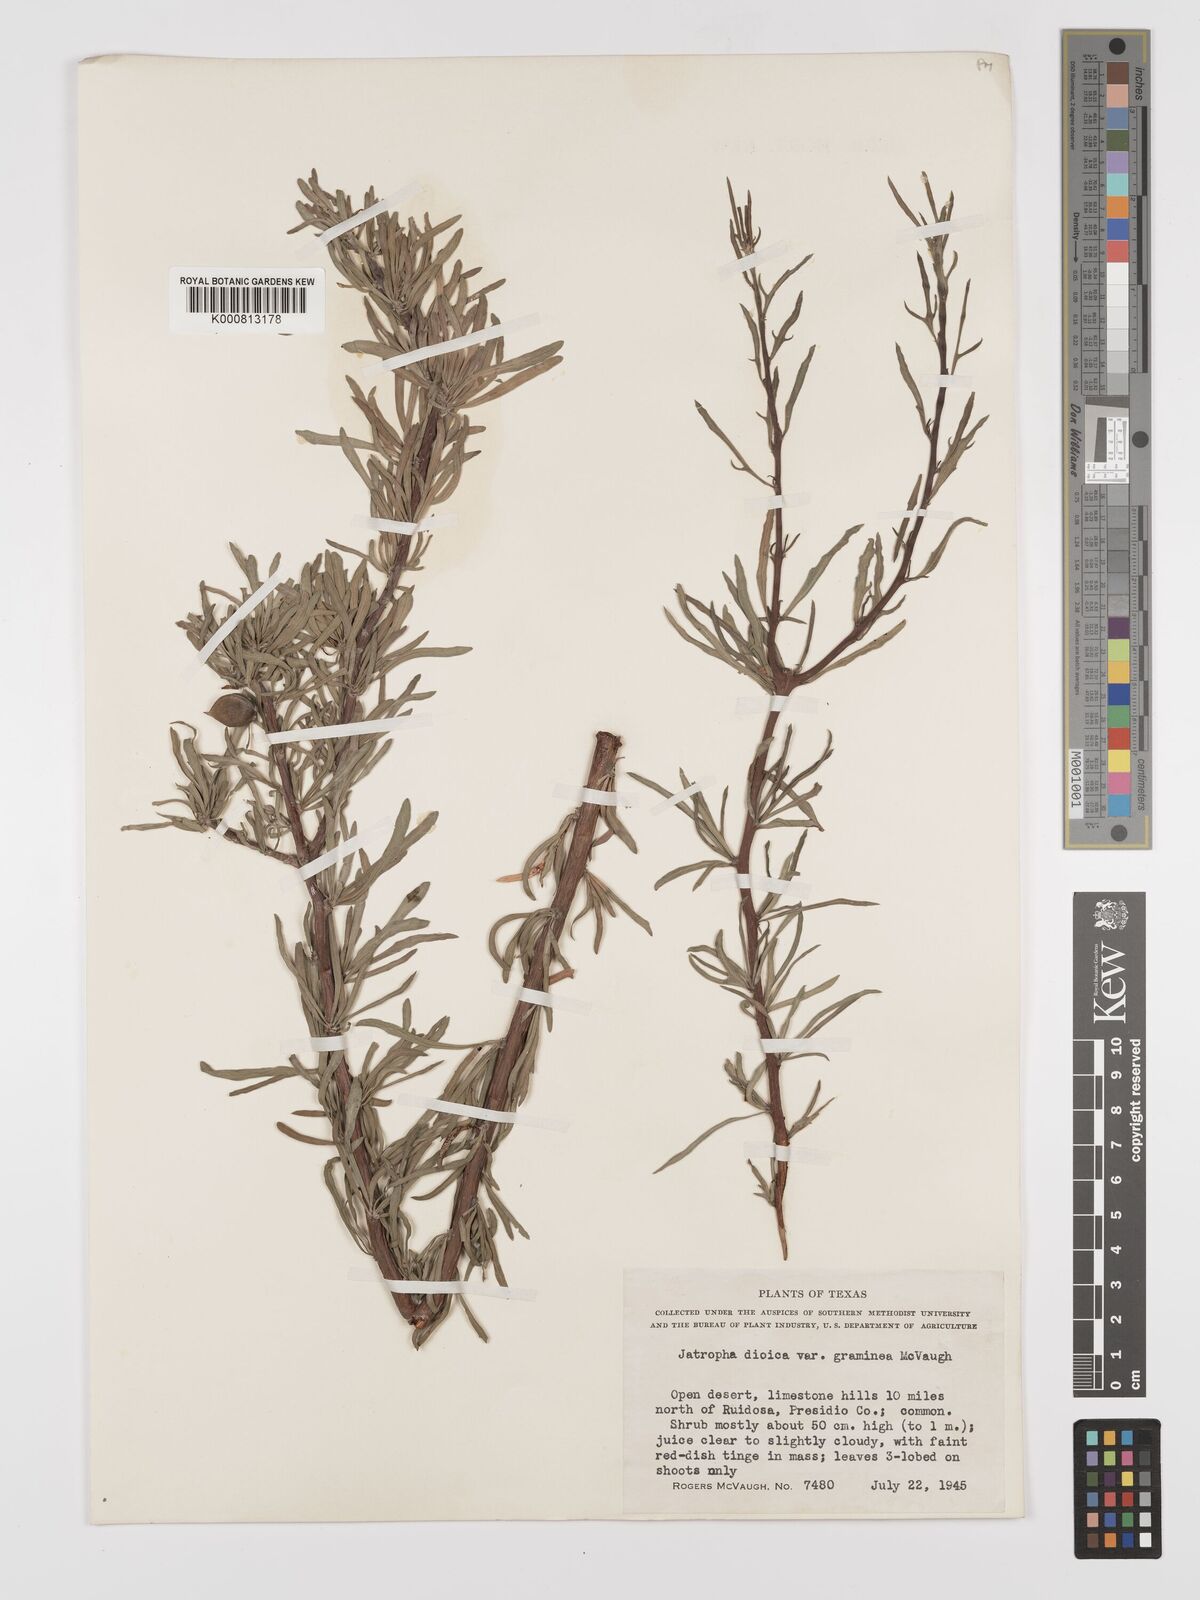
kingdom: Plantae
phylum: Tracheophyta
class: Magnoliopsida
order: Malpighiales
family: Euphorbiaceae
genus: Jatropha
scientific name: Jatropha
